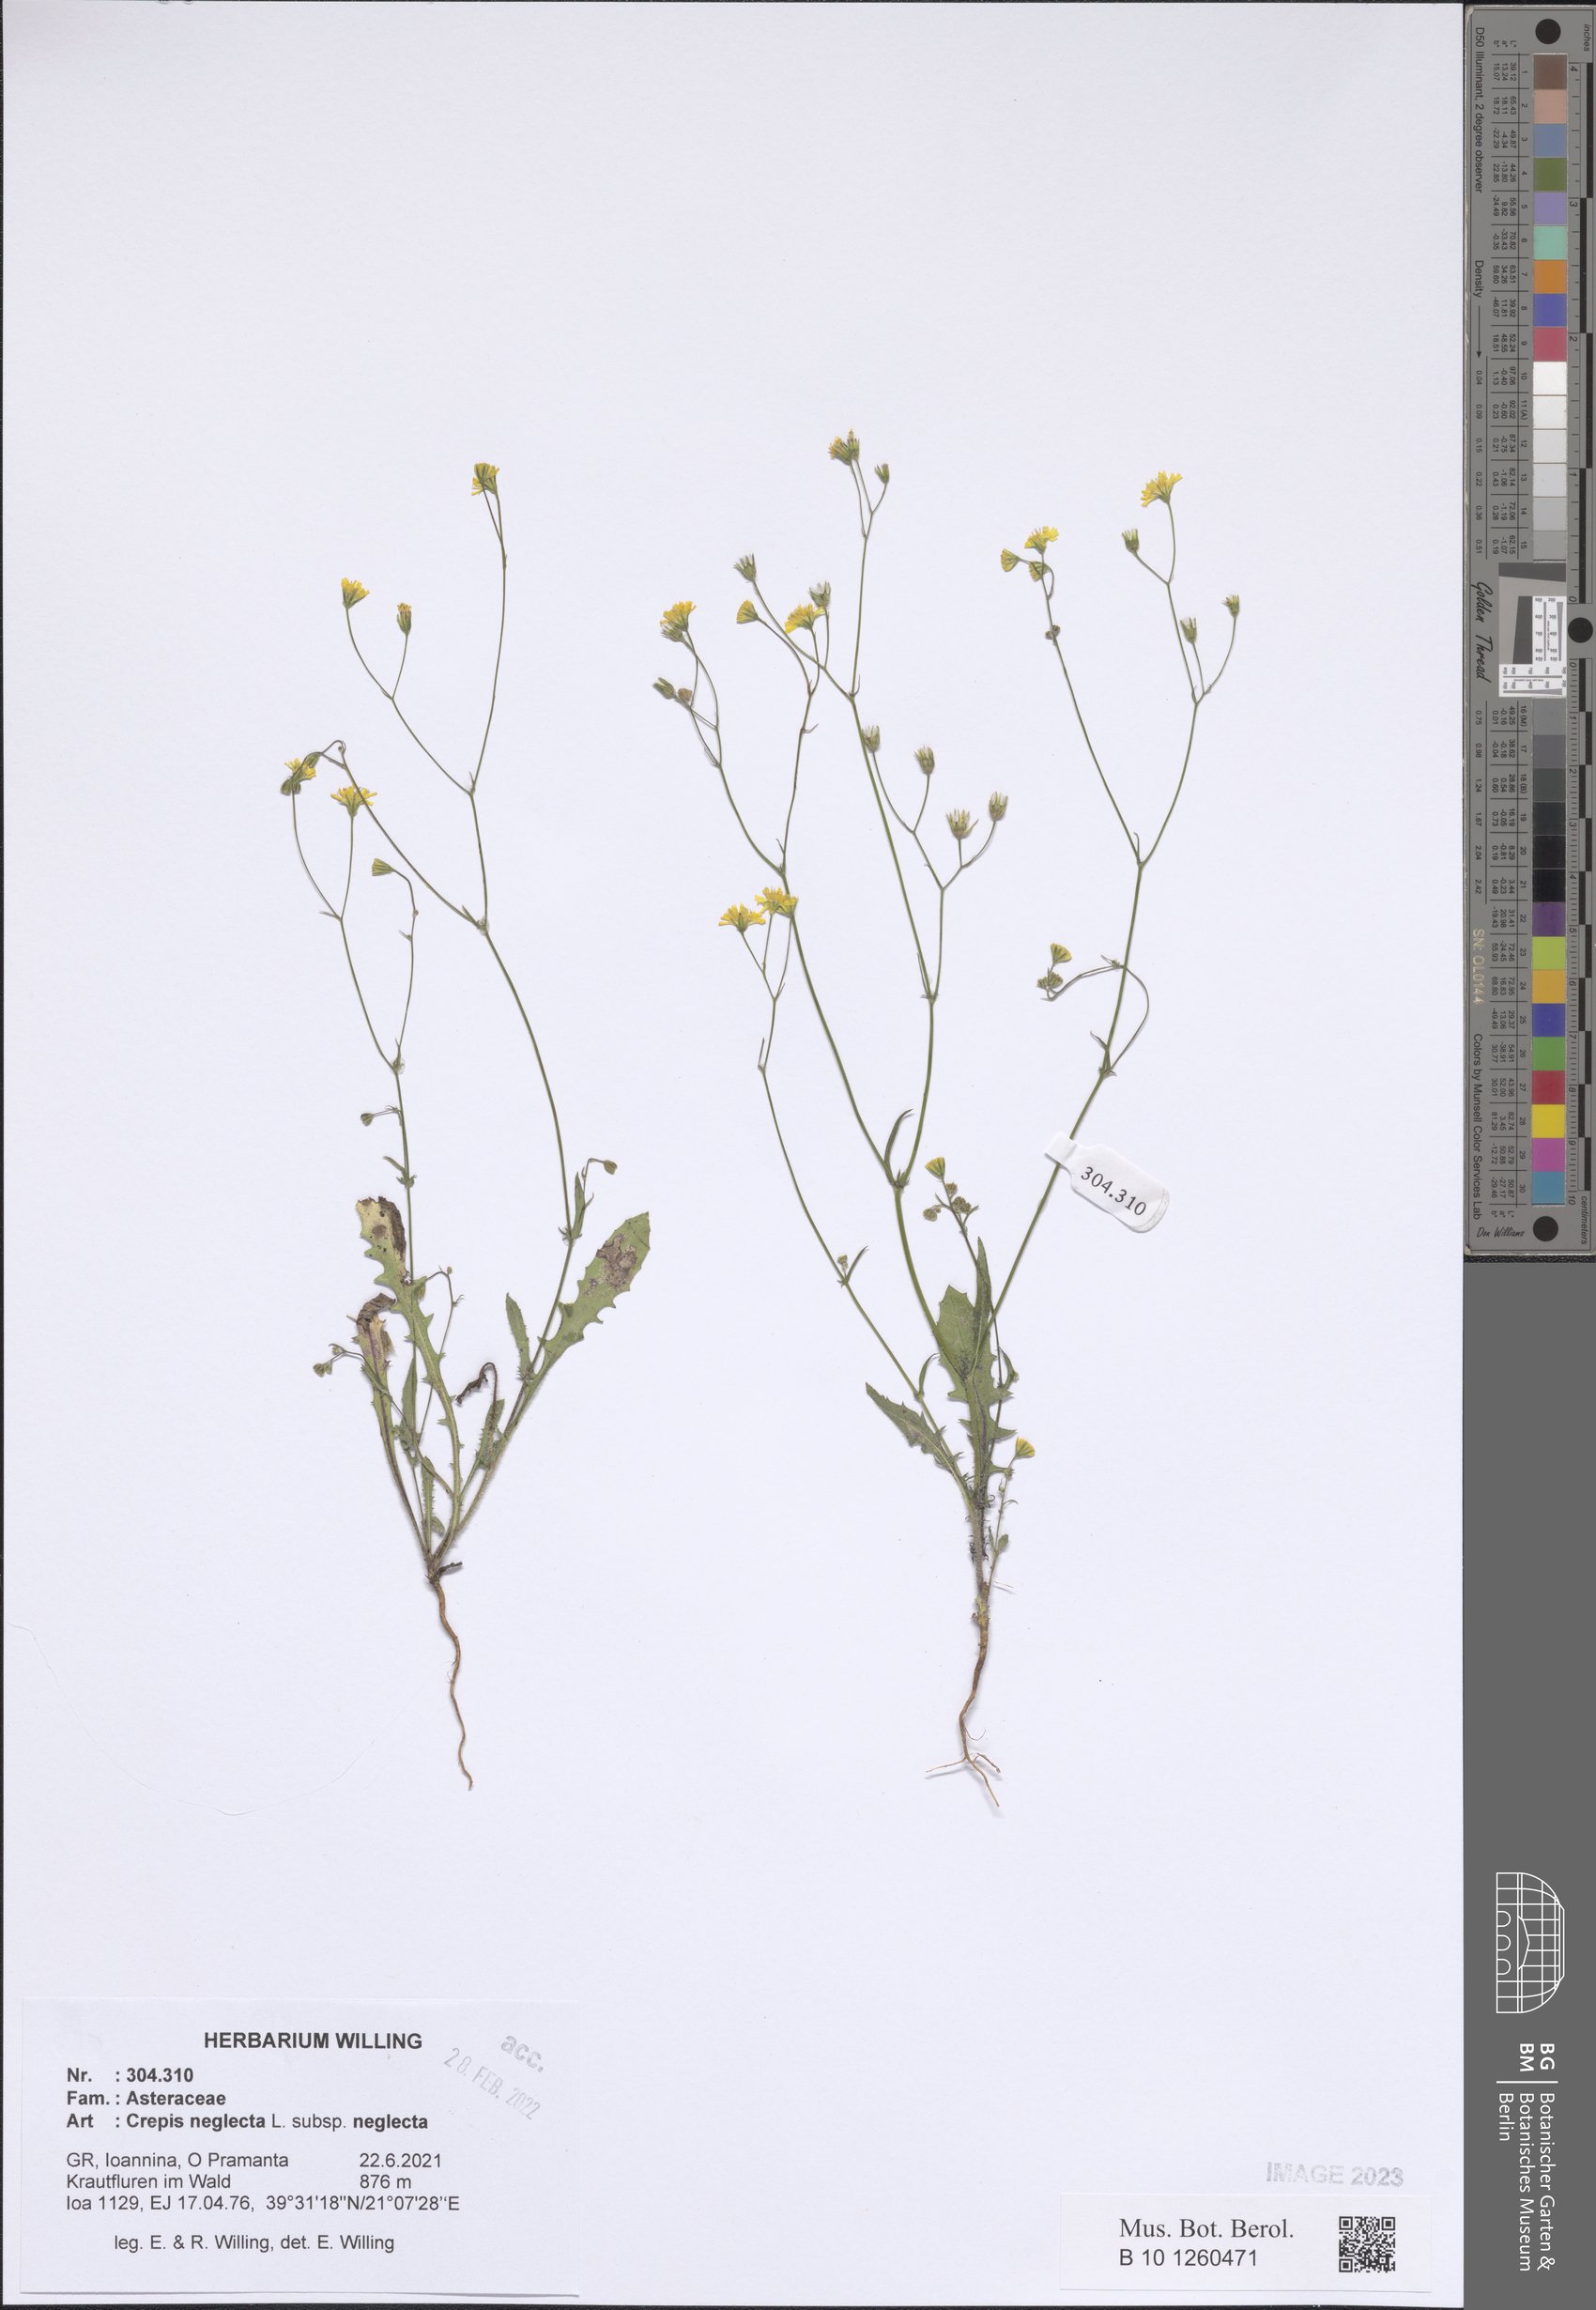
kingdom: Plantae
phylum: Tracheophyta
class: Magnoliopsida
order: Asterales
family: Asteraceae
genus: Crepis
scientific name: Crepis neglecta
